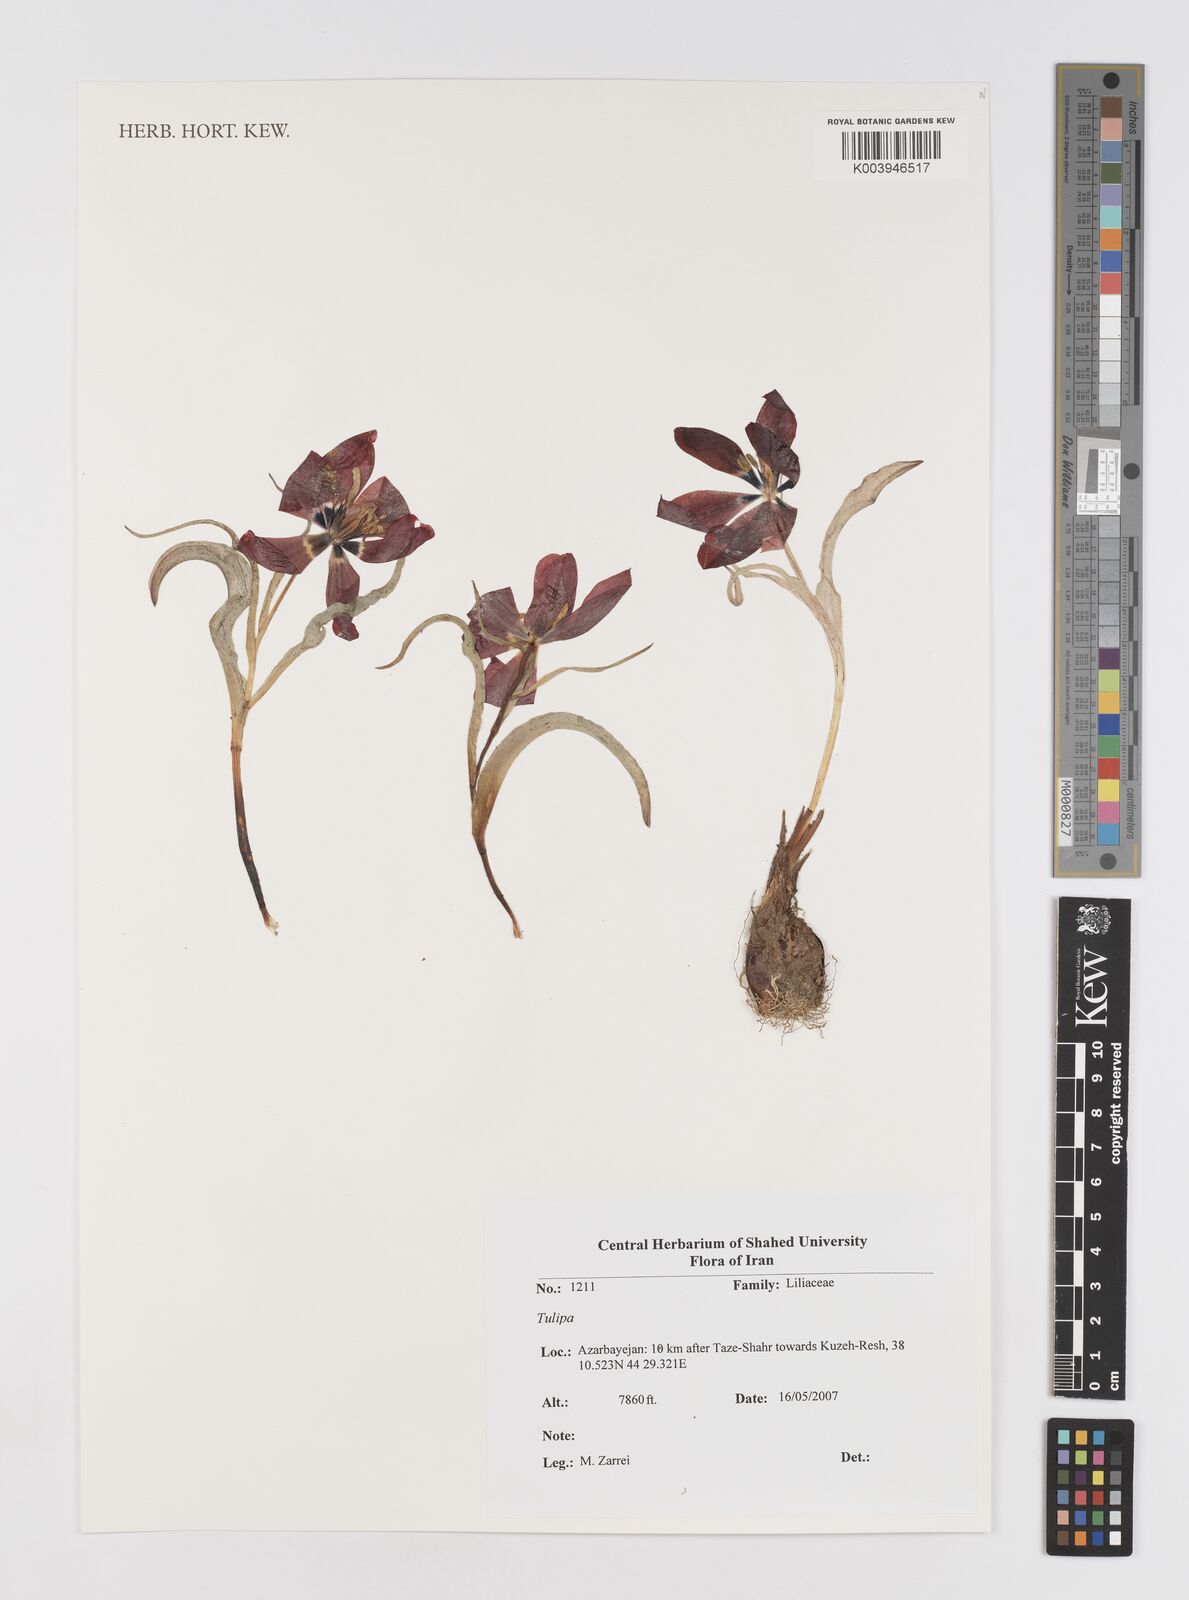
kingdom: Plantae
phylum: Tracheophyta
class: Liliopsida
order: Liliales
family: Liliaceae
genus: Tulipa
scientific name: Tulipa
